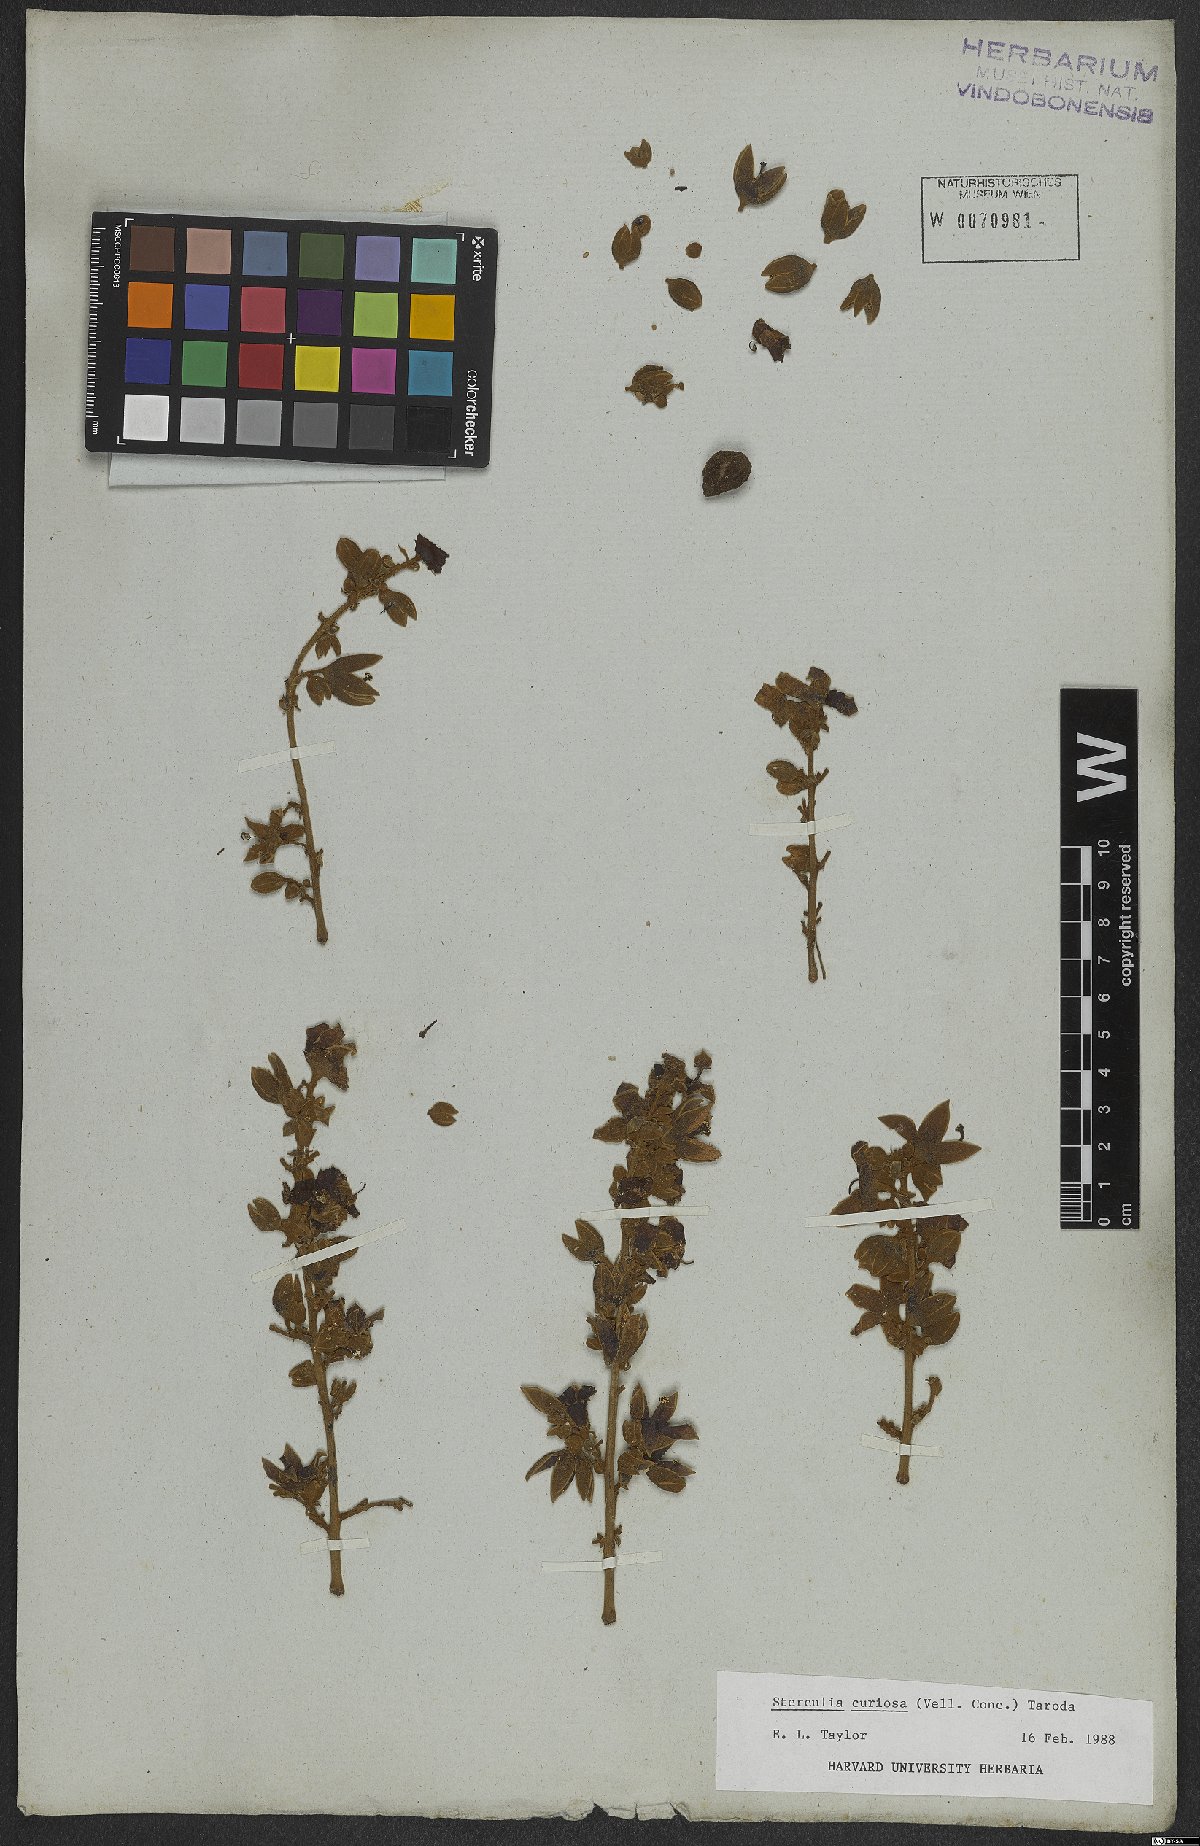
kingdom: Plantae
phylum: Tracheophyta
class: Magnoliopsida
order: Malvales
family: Malvaceae
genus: Sterculia
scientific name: Sterculia curiosa
